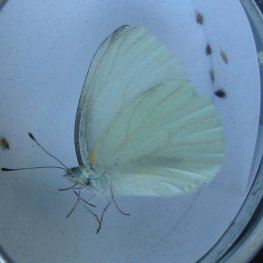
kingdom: Animalia
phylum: Arthropoda
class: Insecta
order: Lepidoptera
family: Pieridae
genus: Pieris
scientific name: Pieris oleracea
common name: Mustard White
